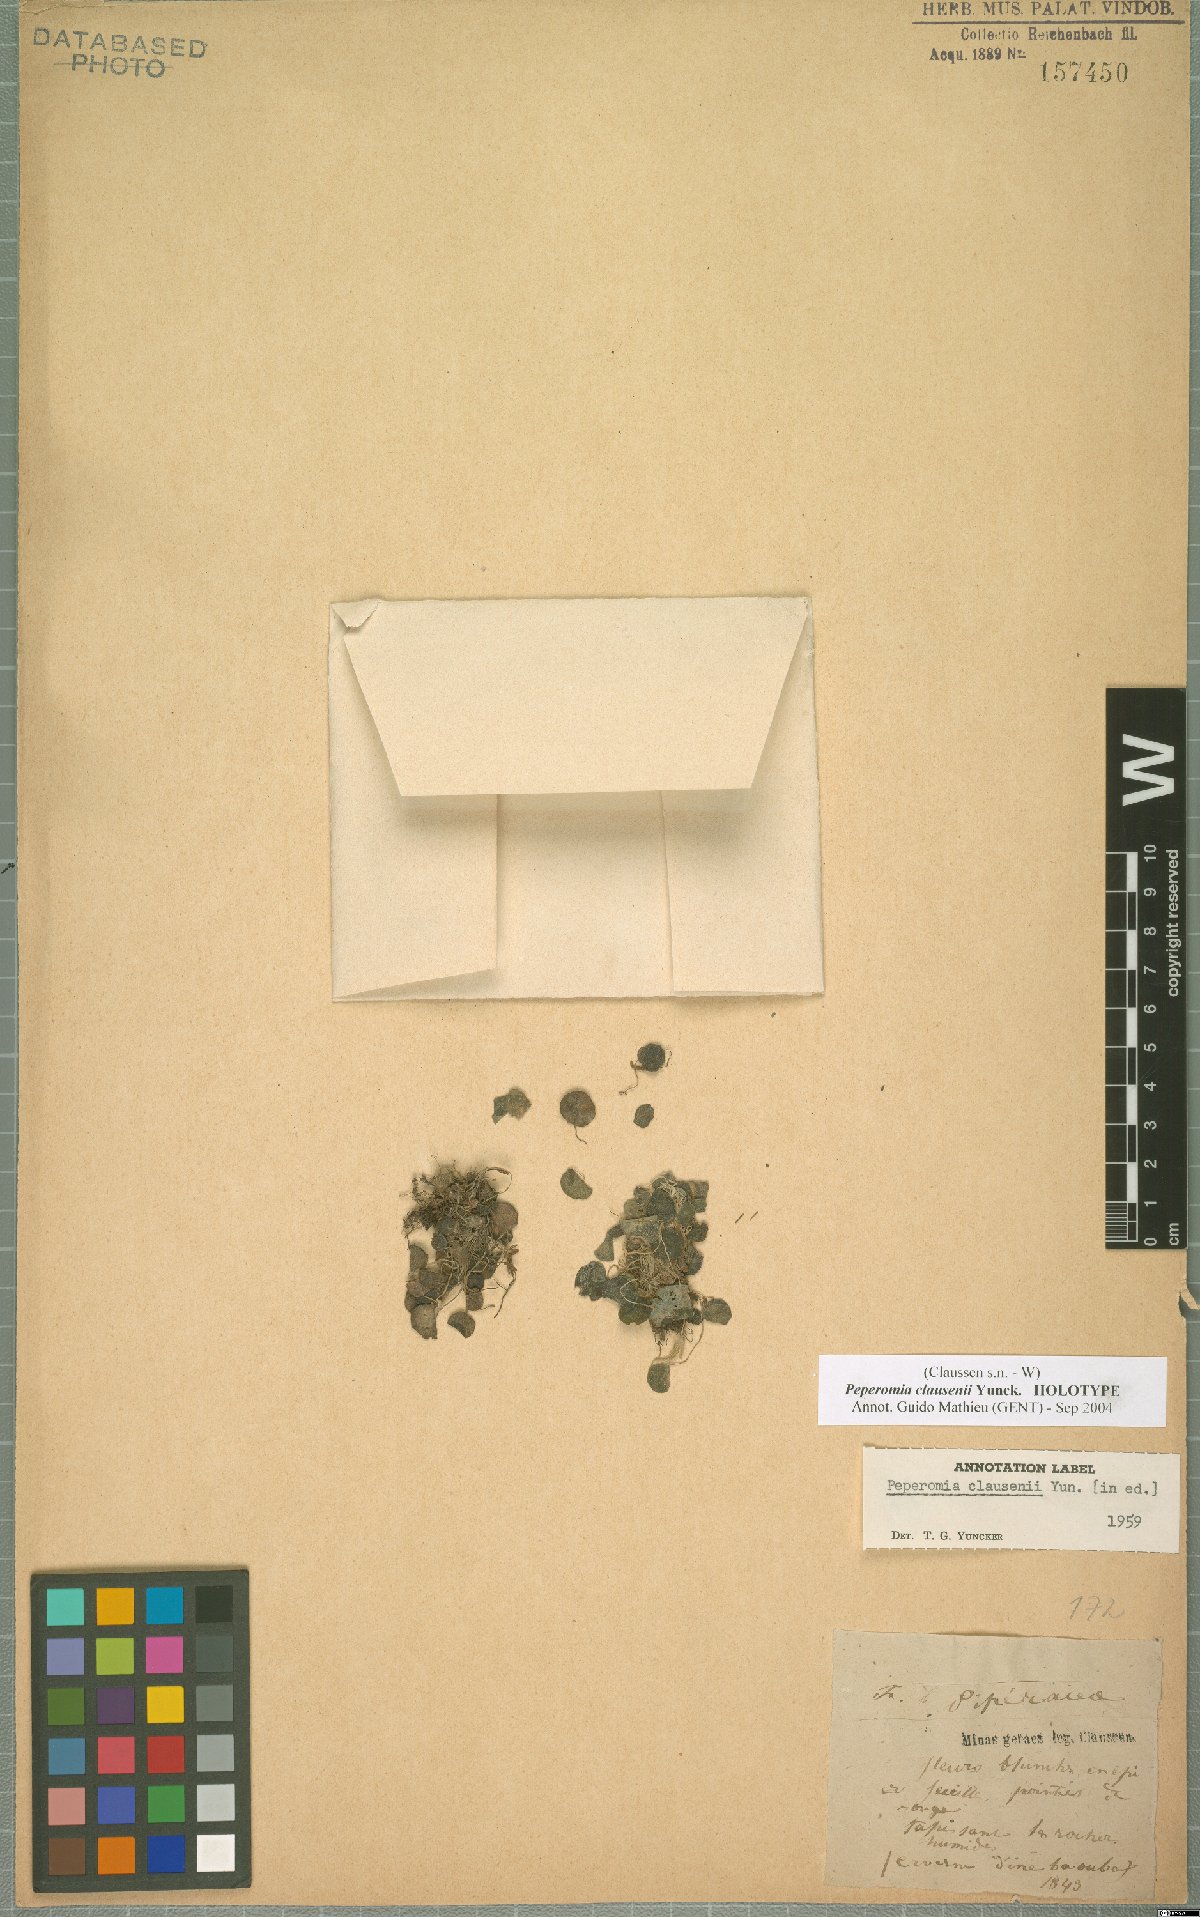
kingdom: Plantae
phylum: Tracheophyta
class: Magnoliopsida
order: Piperales
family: Piperaceae
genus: Peperomia
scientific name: Peperomia claussenii
